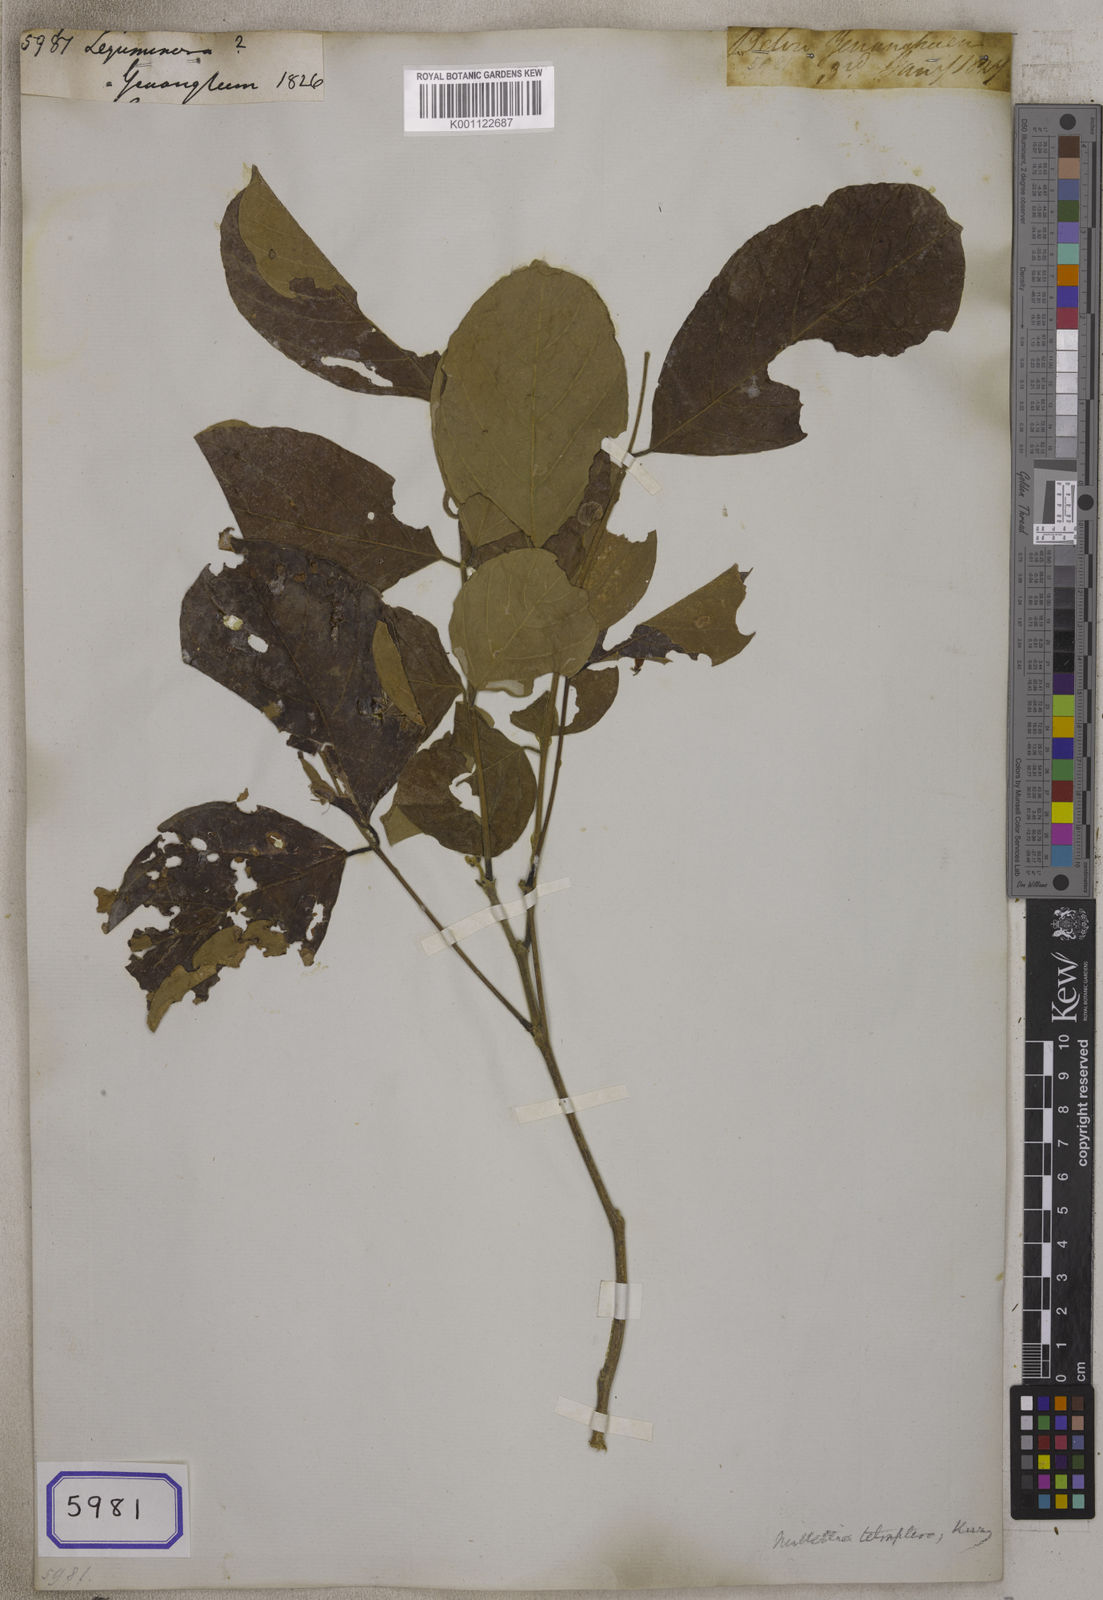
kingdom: Plantae
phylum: Tracheophyta
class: Magnoliopsida
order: Fabales
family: Fabaceae
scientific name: Fabaceae
